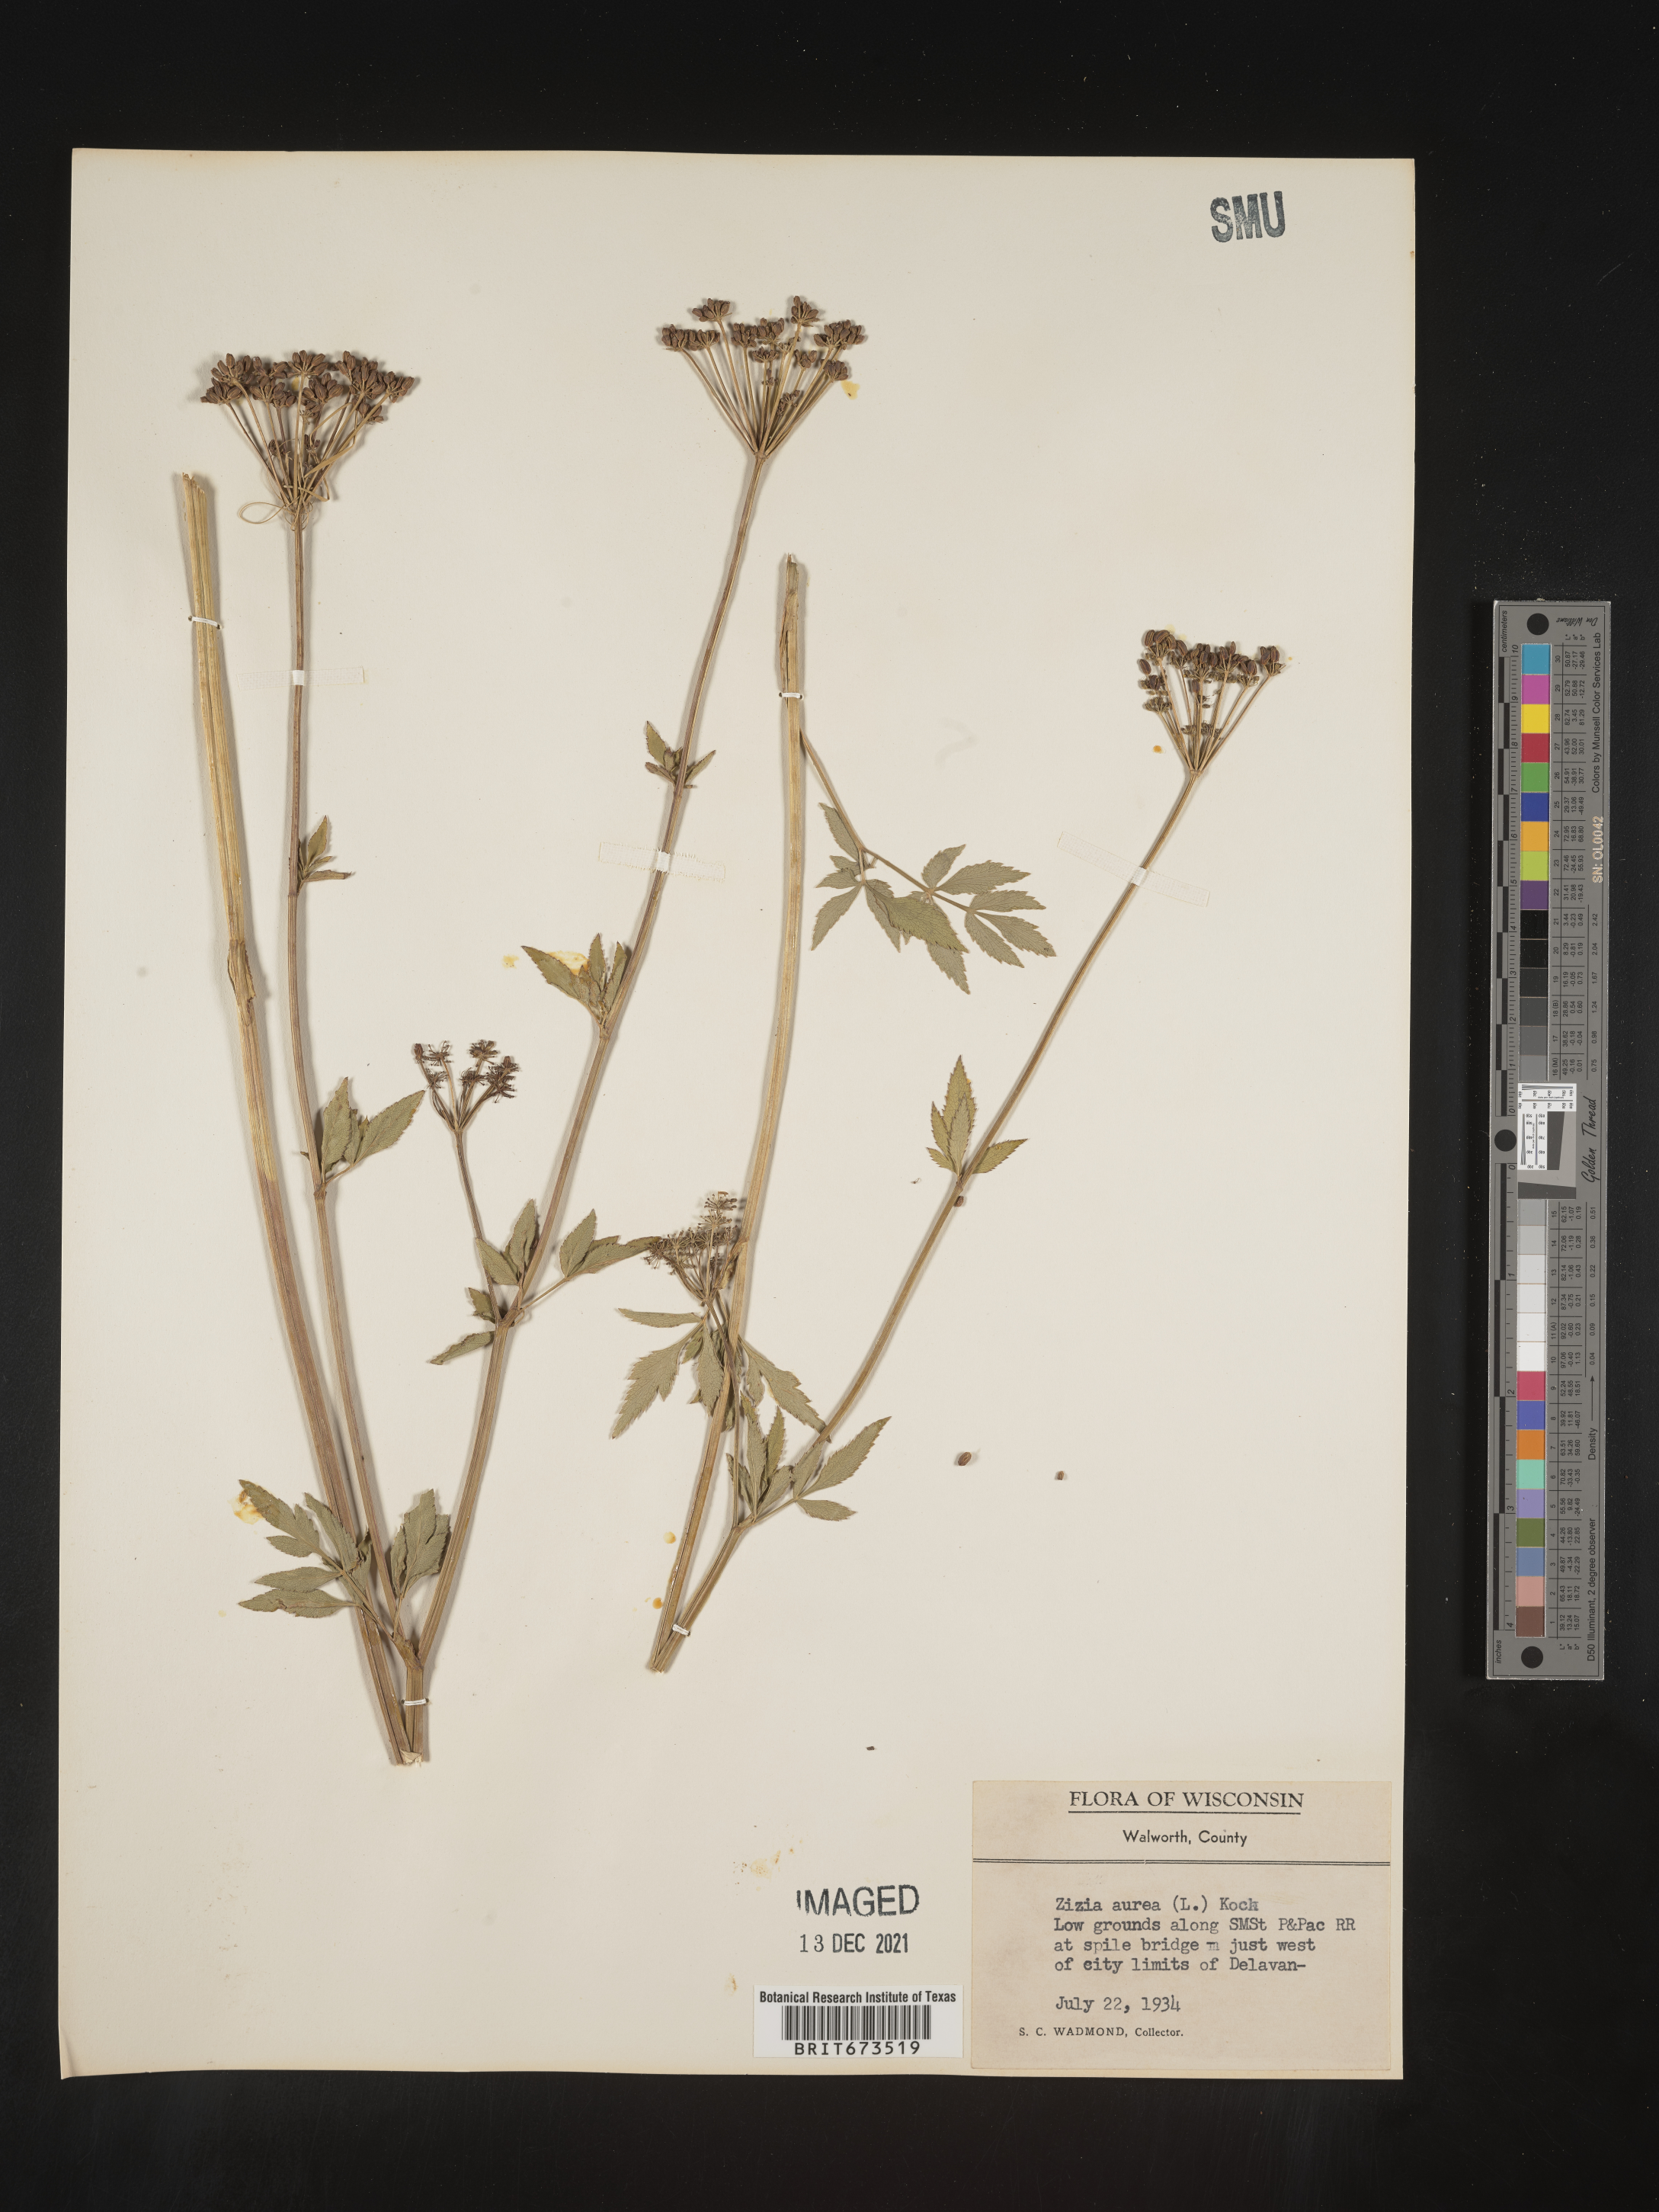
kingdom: Plantae
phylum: Tracheophyta
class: Magnoliopsida
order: Apiales
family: Apiaceae
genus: Zizia
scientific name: Zizia aurea
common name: Golden alexanders
